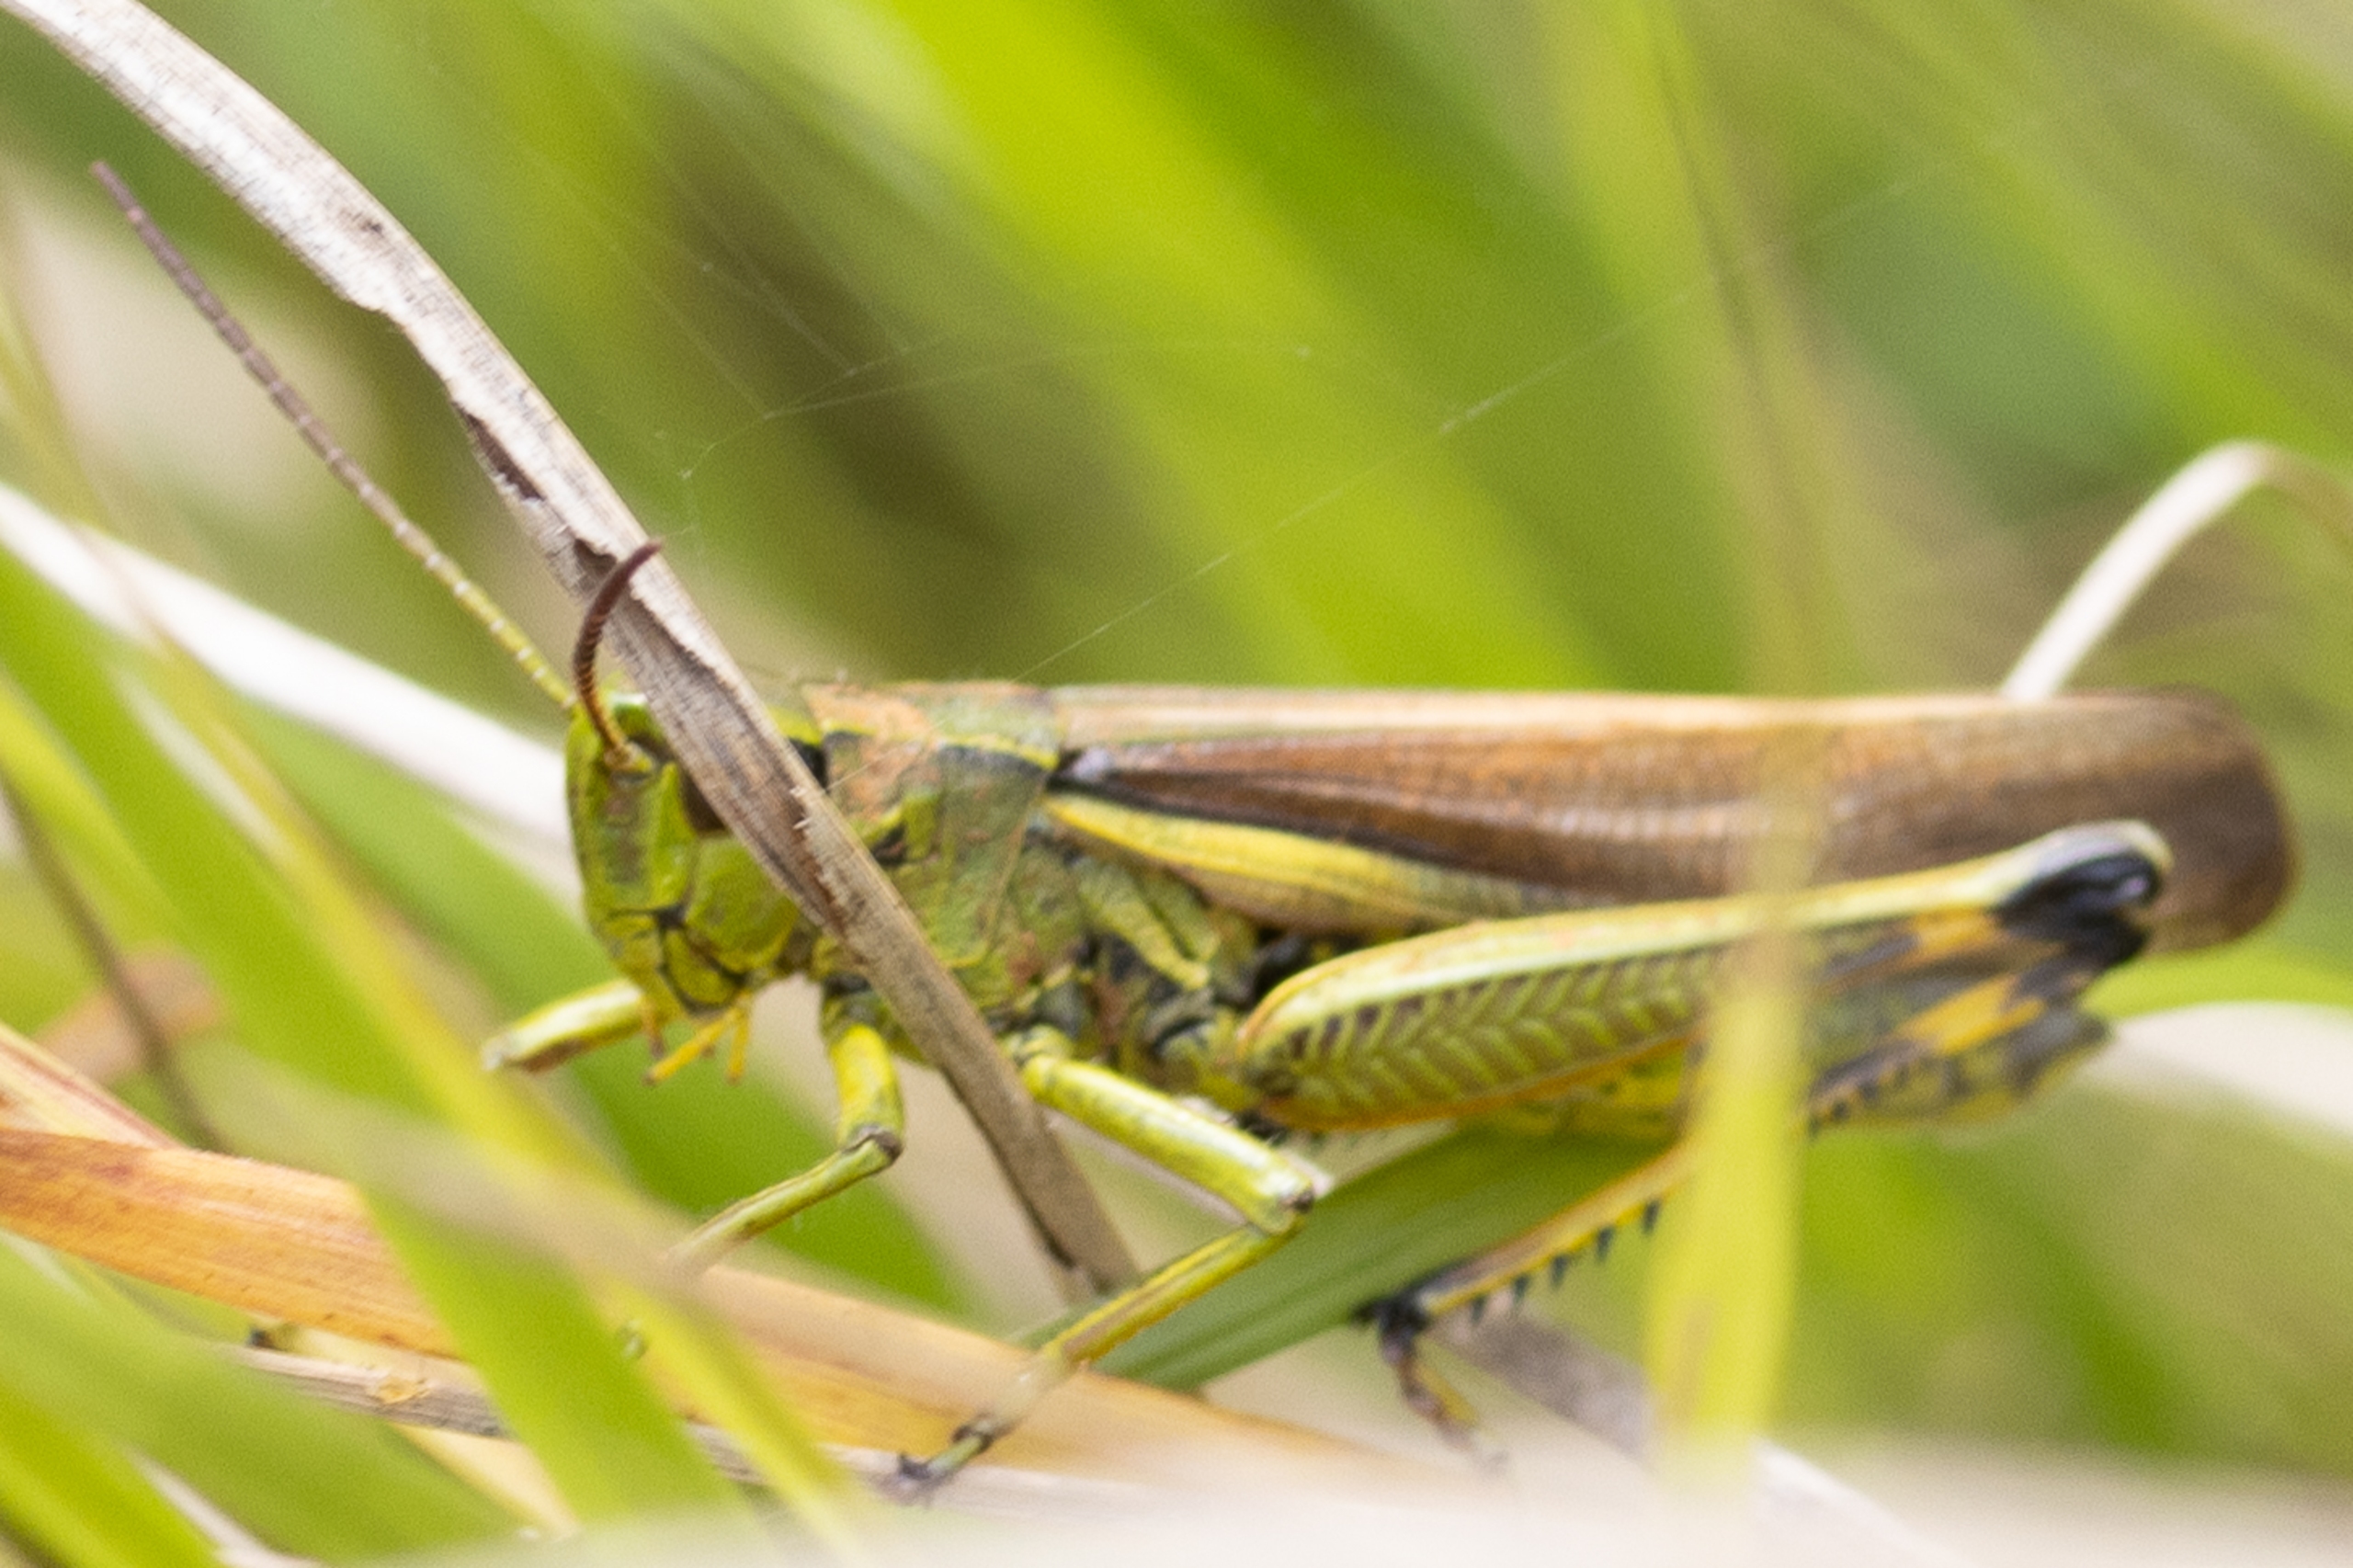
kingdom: Animalia
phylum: Arthropoda
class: Insecta
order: Orthoptera
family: Acrididae
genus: Stethophyma
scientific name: Stethophyma grossum
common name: Sumpgræshoppe
